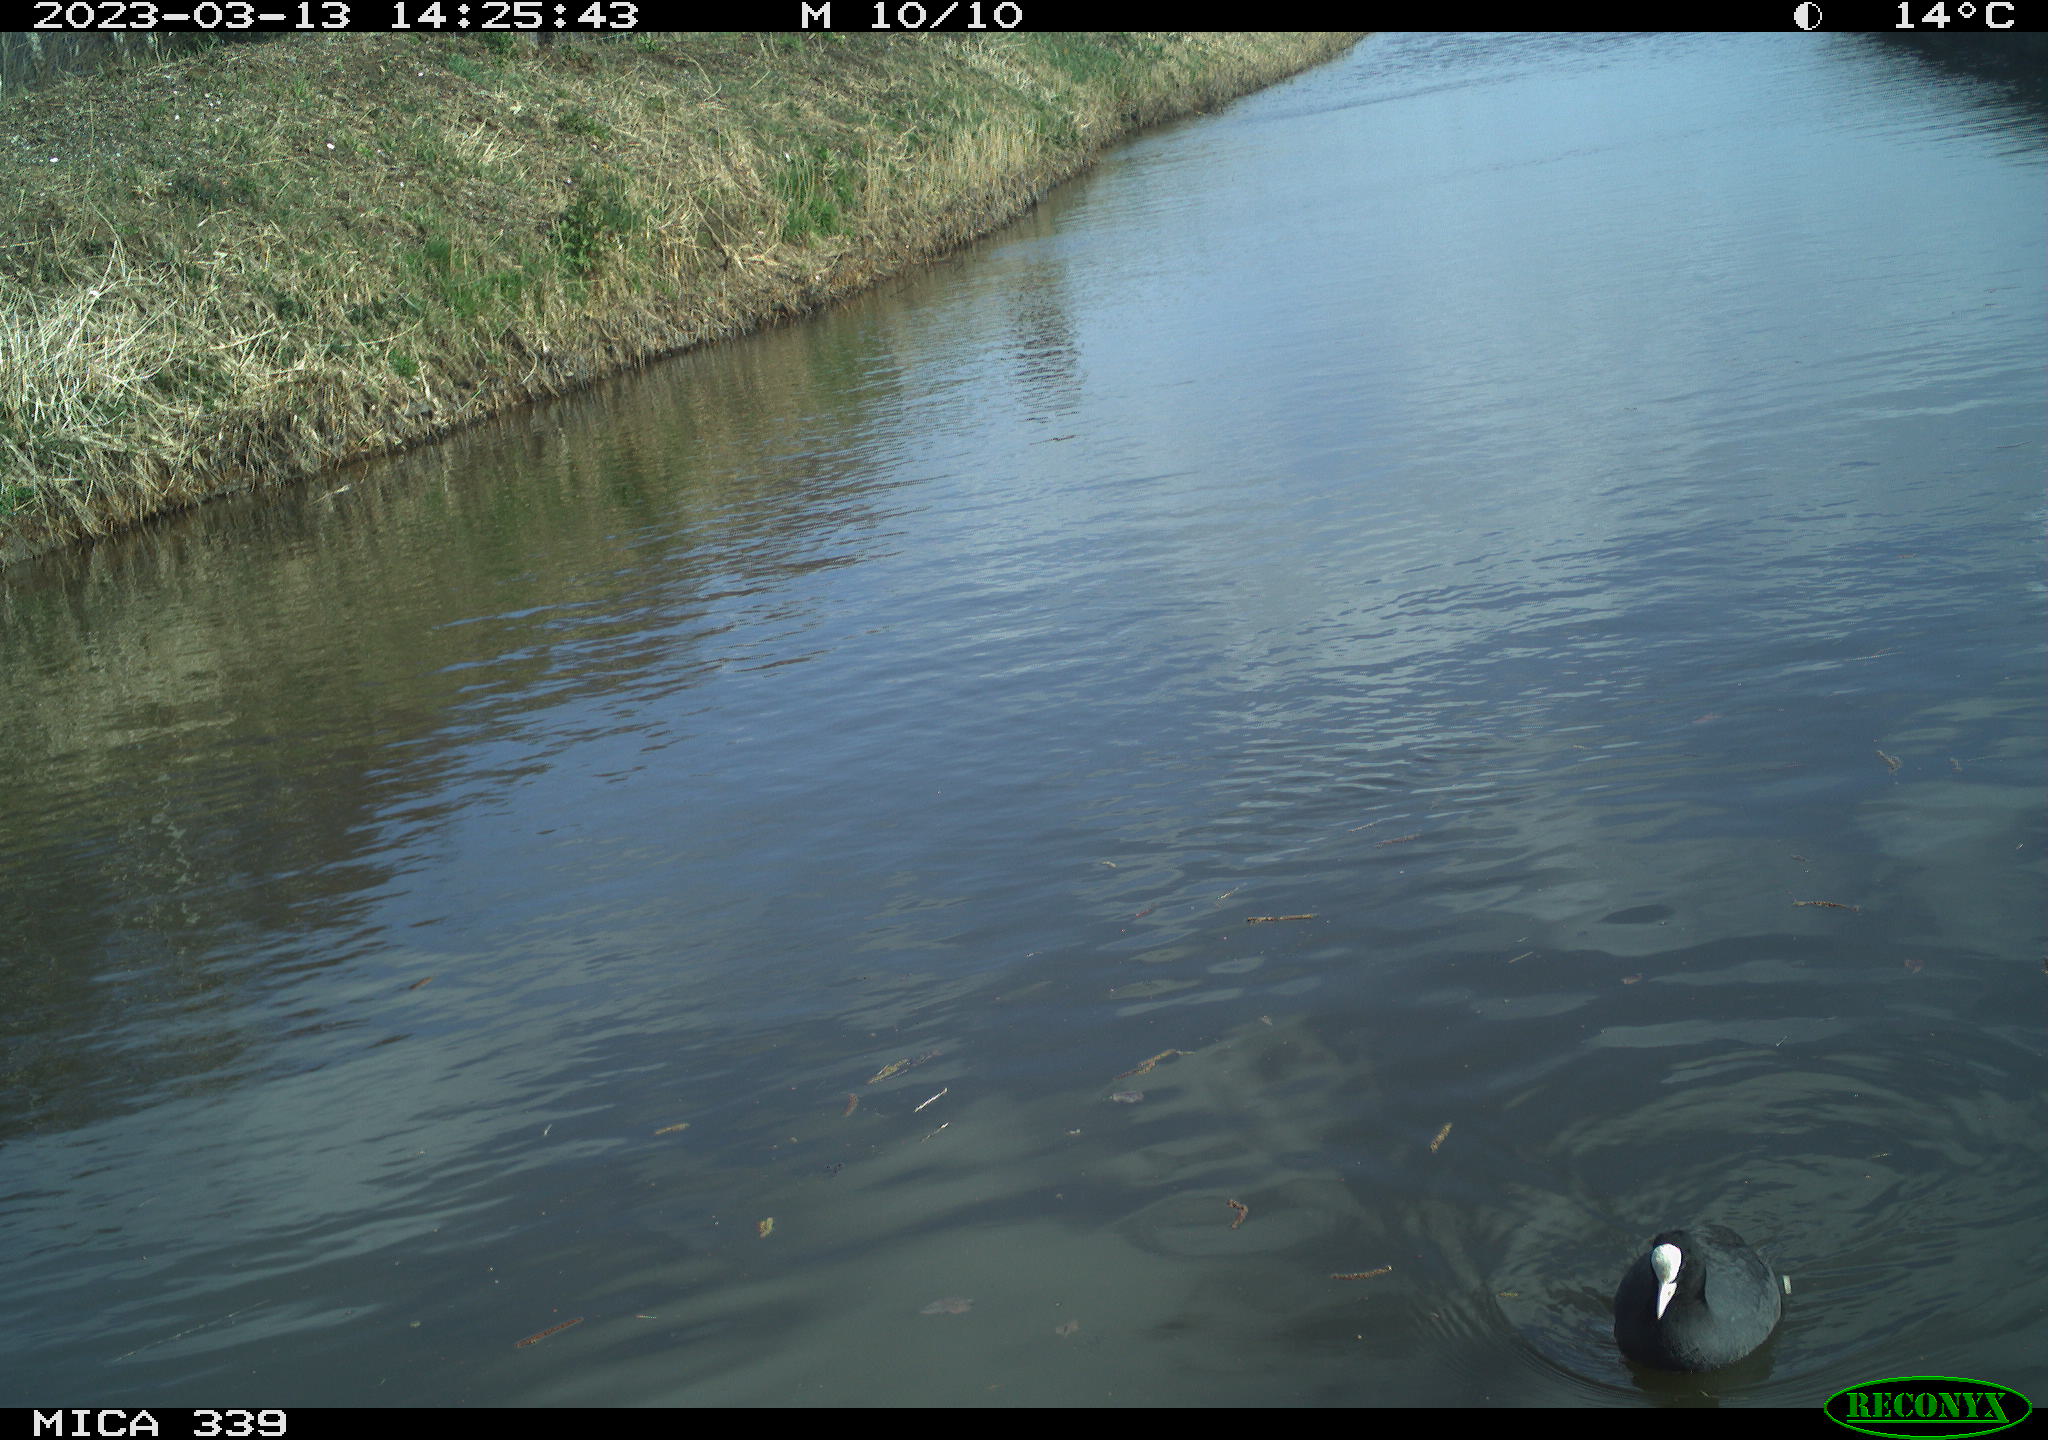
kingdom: Animalia
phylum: Chordata
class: Aves
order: Gruiformes
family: Rallidae
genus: Fulica
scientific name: Fulica atra
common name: Eurasian coot
